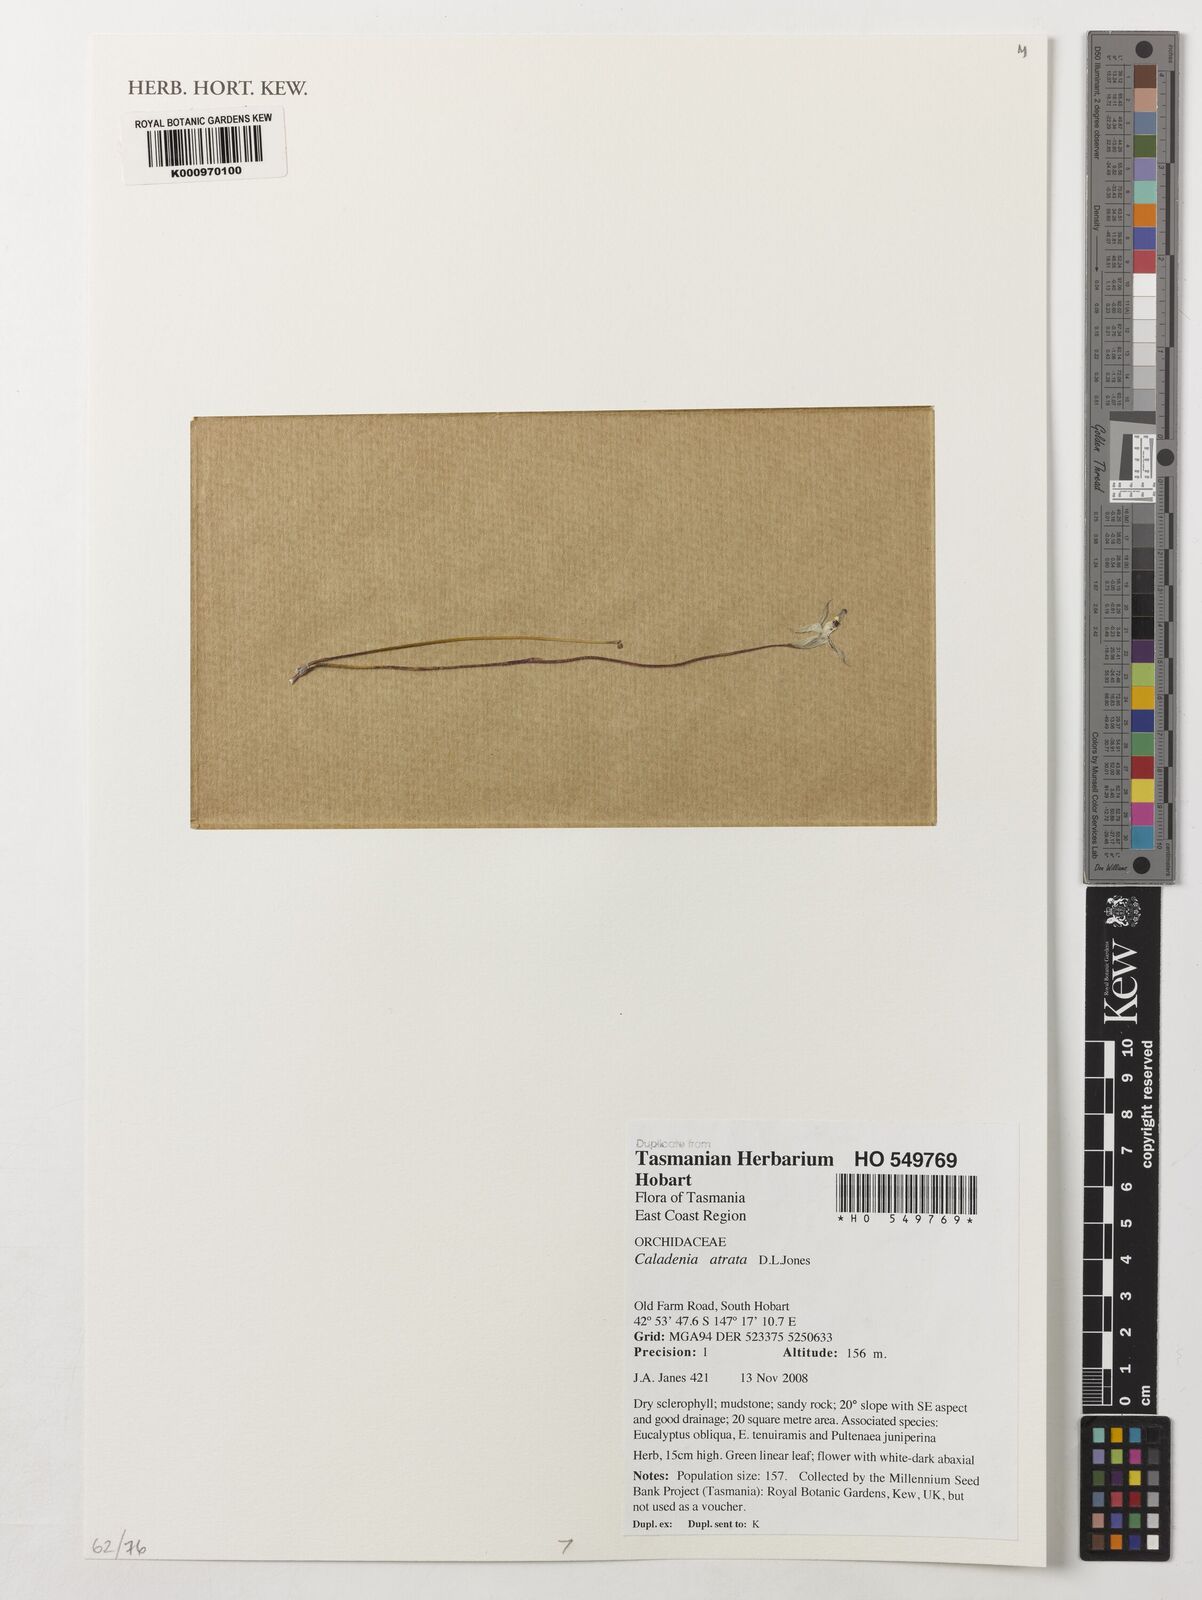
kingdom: Plantae
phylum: Tracheophyta
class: Liliopsida
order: Asparagales
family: Orchidaceae
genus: Caladenia
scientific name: Caladenia atrata
